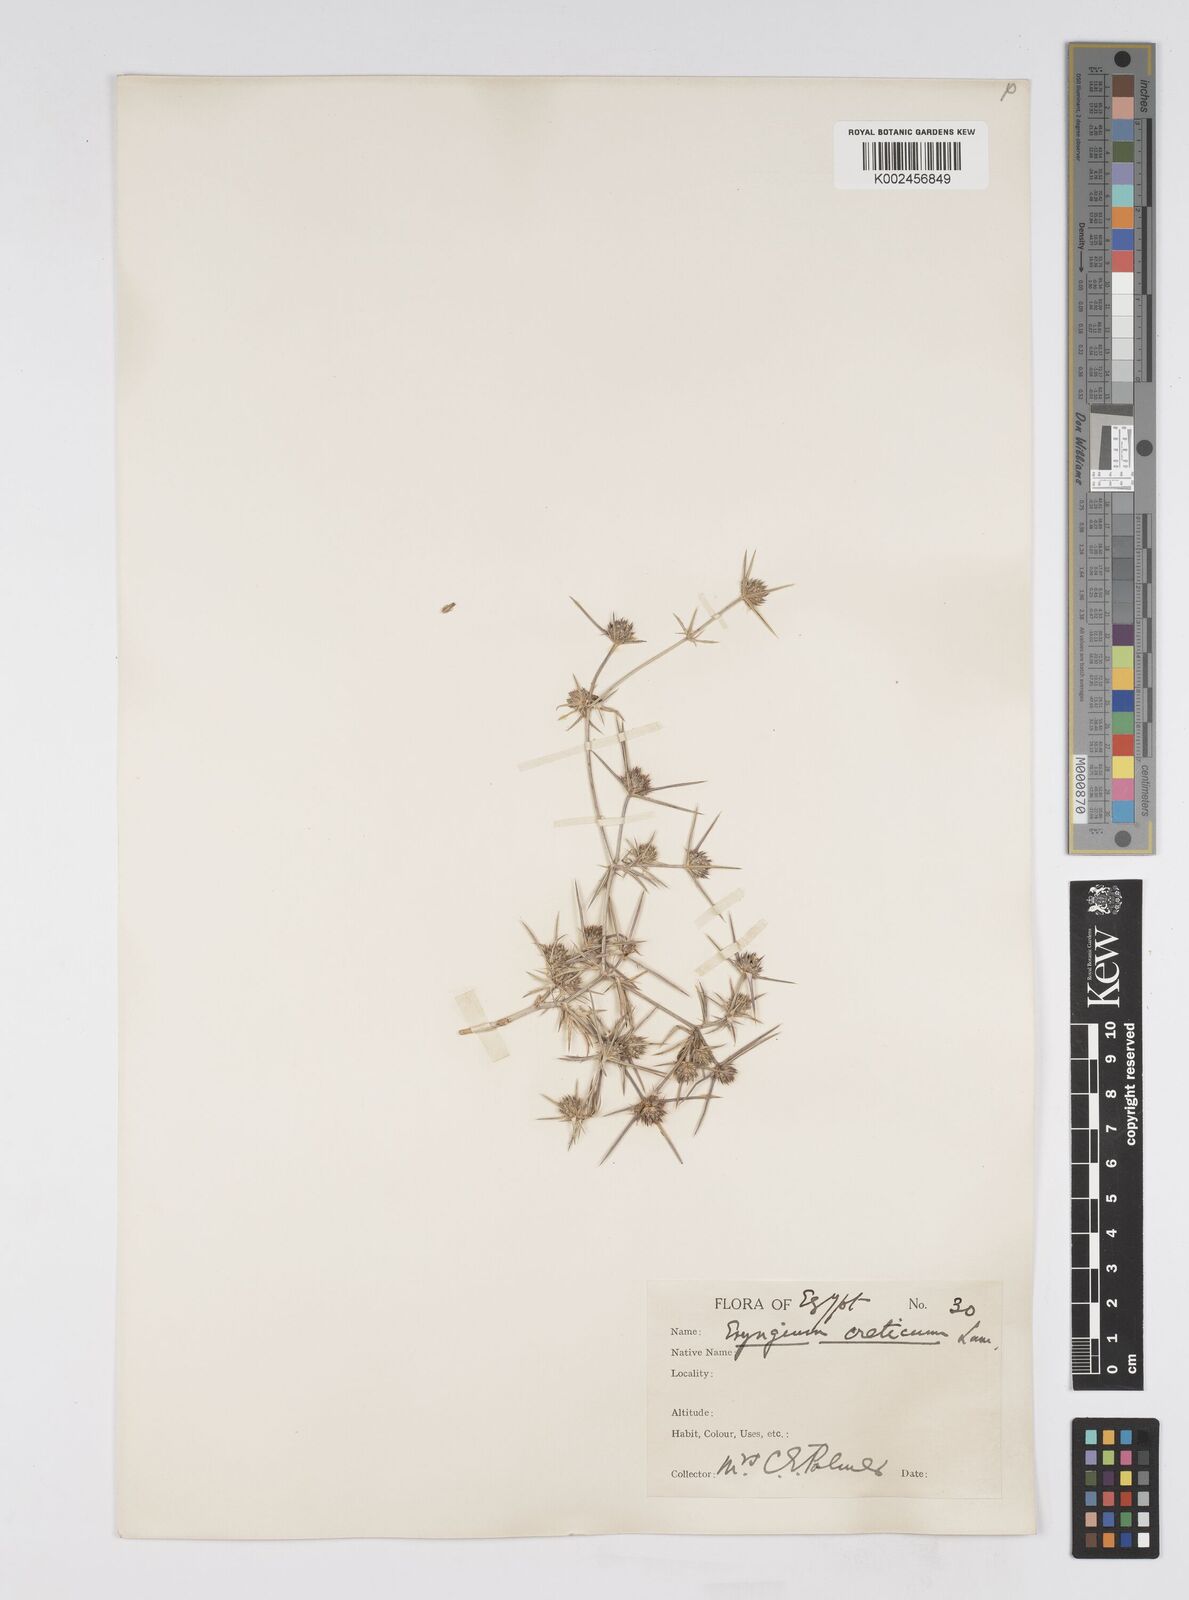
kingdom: Plantae
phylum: Tracheophyta
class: Magnoliopsida
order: Apiales
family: Apiaceae
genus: Eryngium
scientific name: Eryngium creticum
